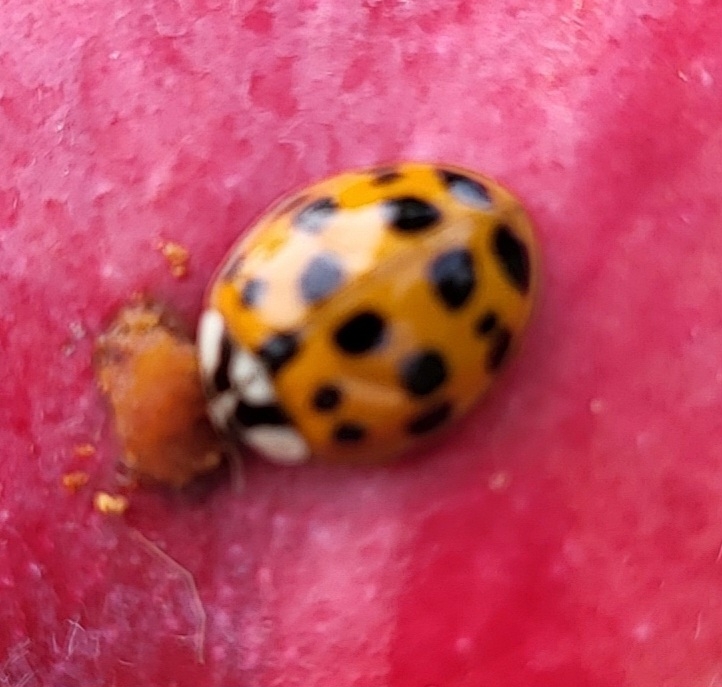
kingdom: Animalia
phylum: Arthropoda
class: Insecta
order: Coleoptera
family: Coccinellidae
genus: Harmonia
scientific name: Harmonia axyridis
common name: Harlekinmariehøne
